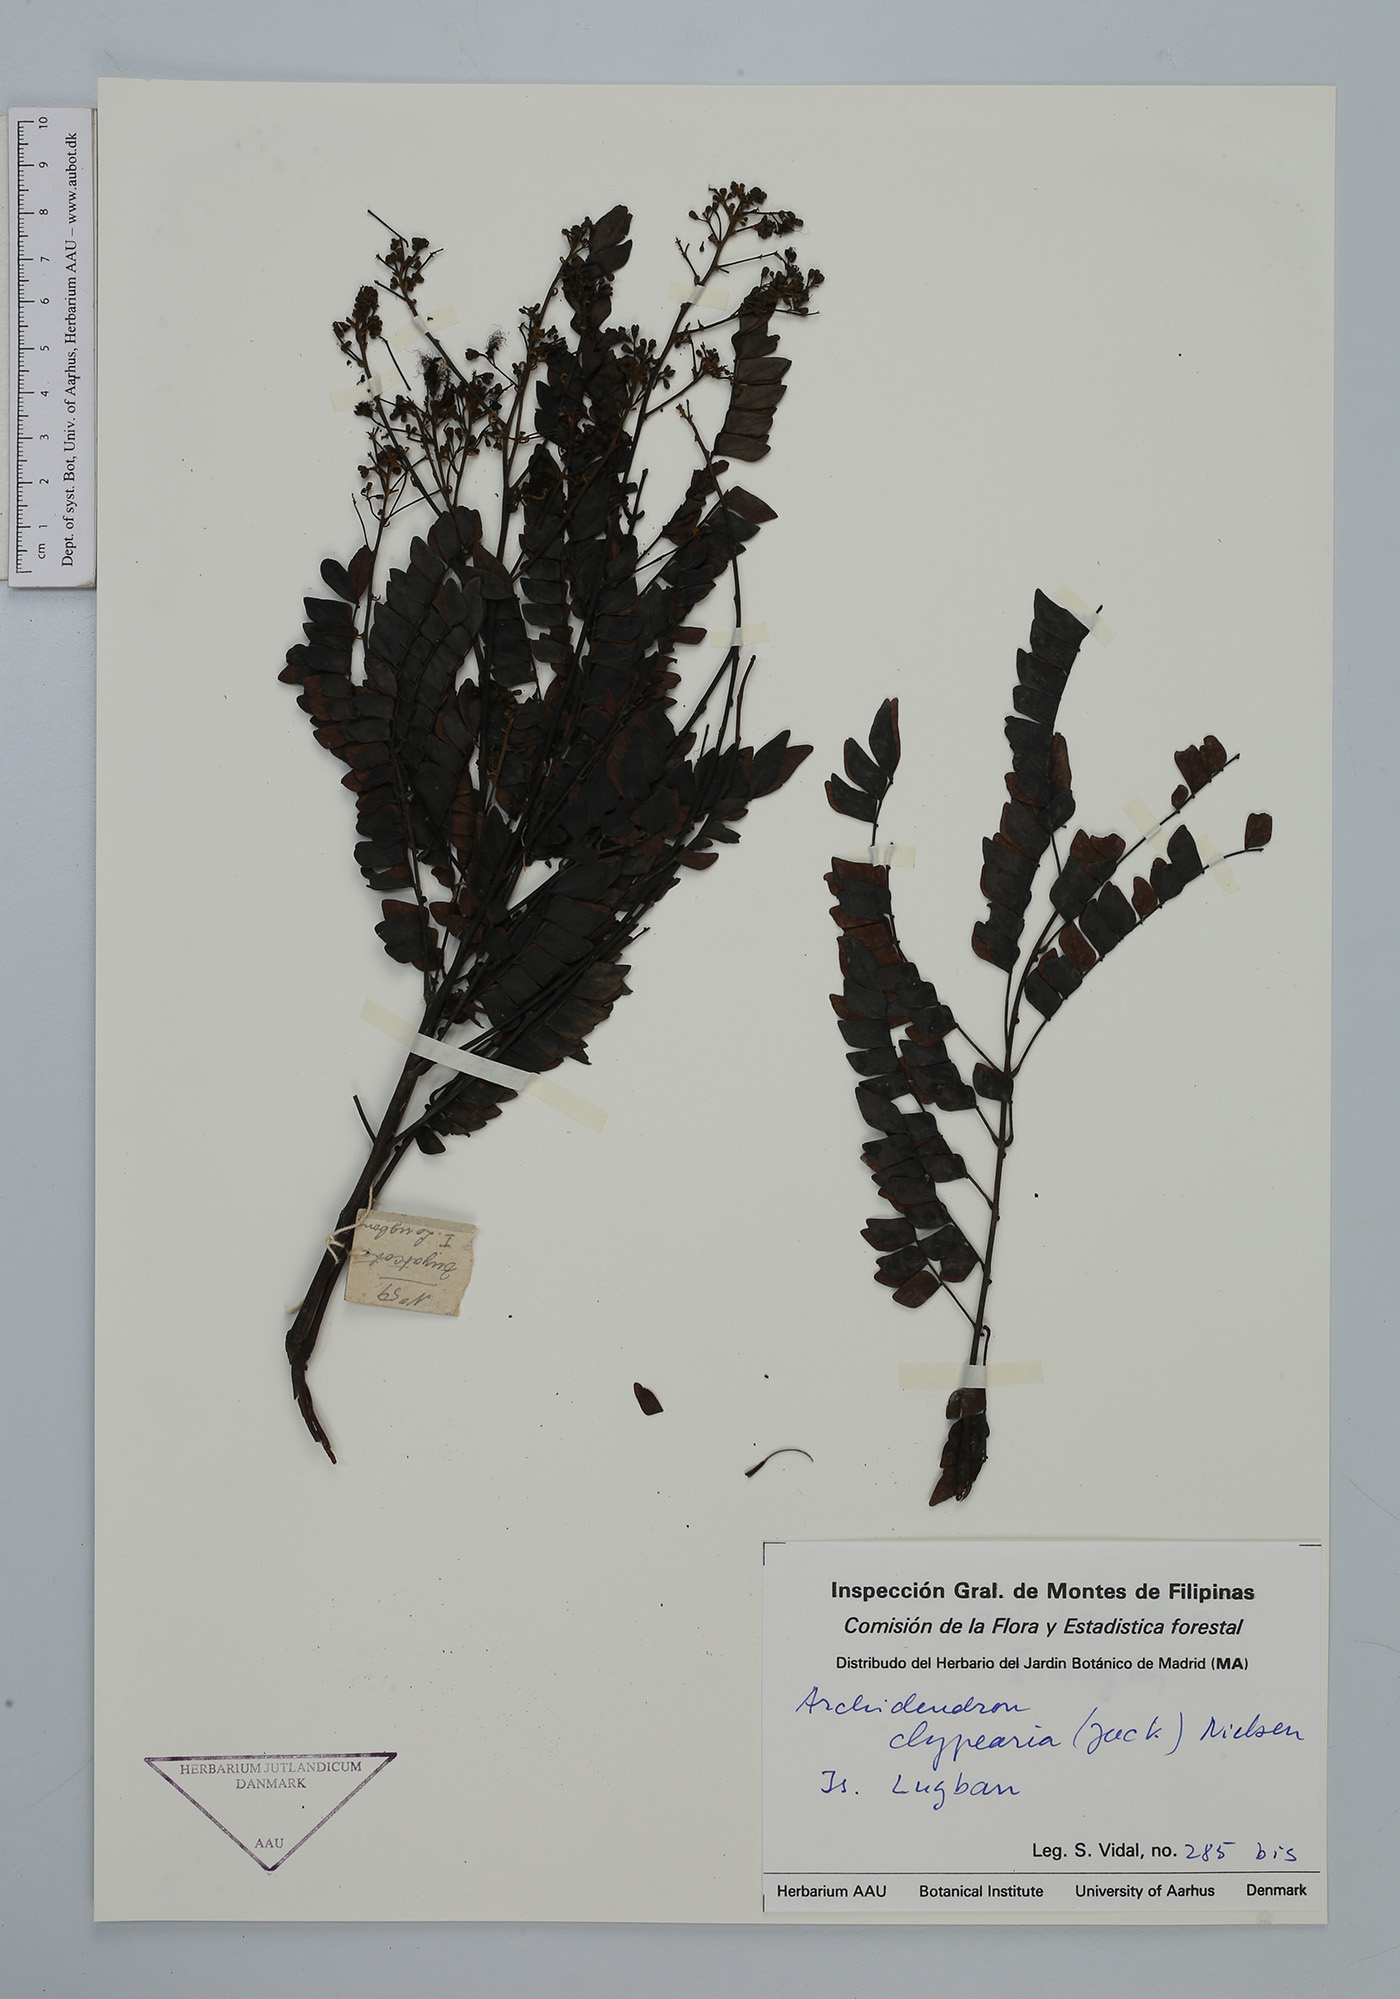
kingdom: Plantae
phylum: Tracheophyta
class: Magnoliopsida
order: Fabales
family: Fabaceae
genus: Archidendron
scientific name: Archidendron clypearia
